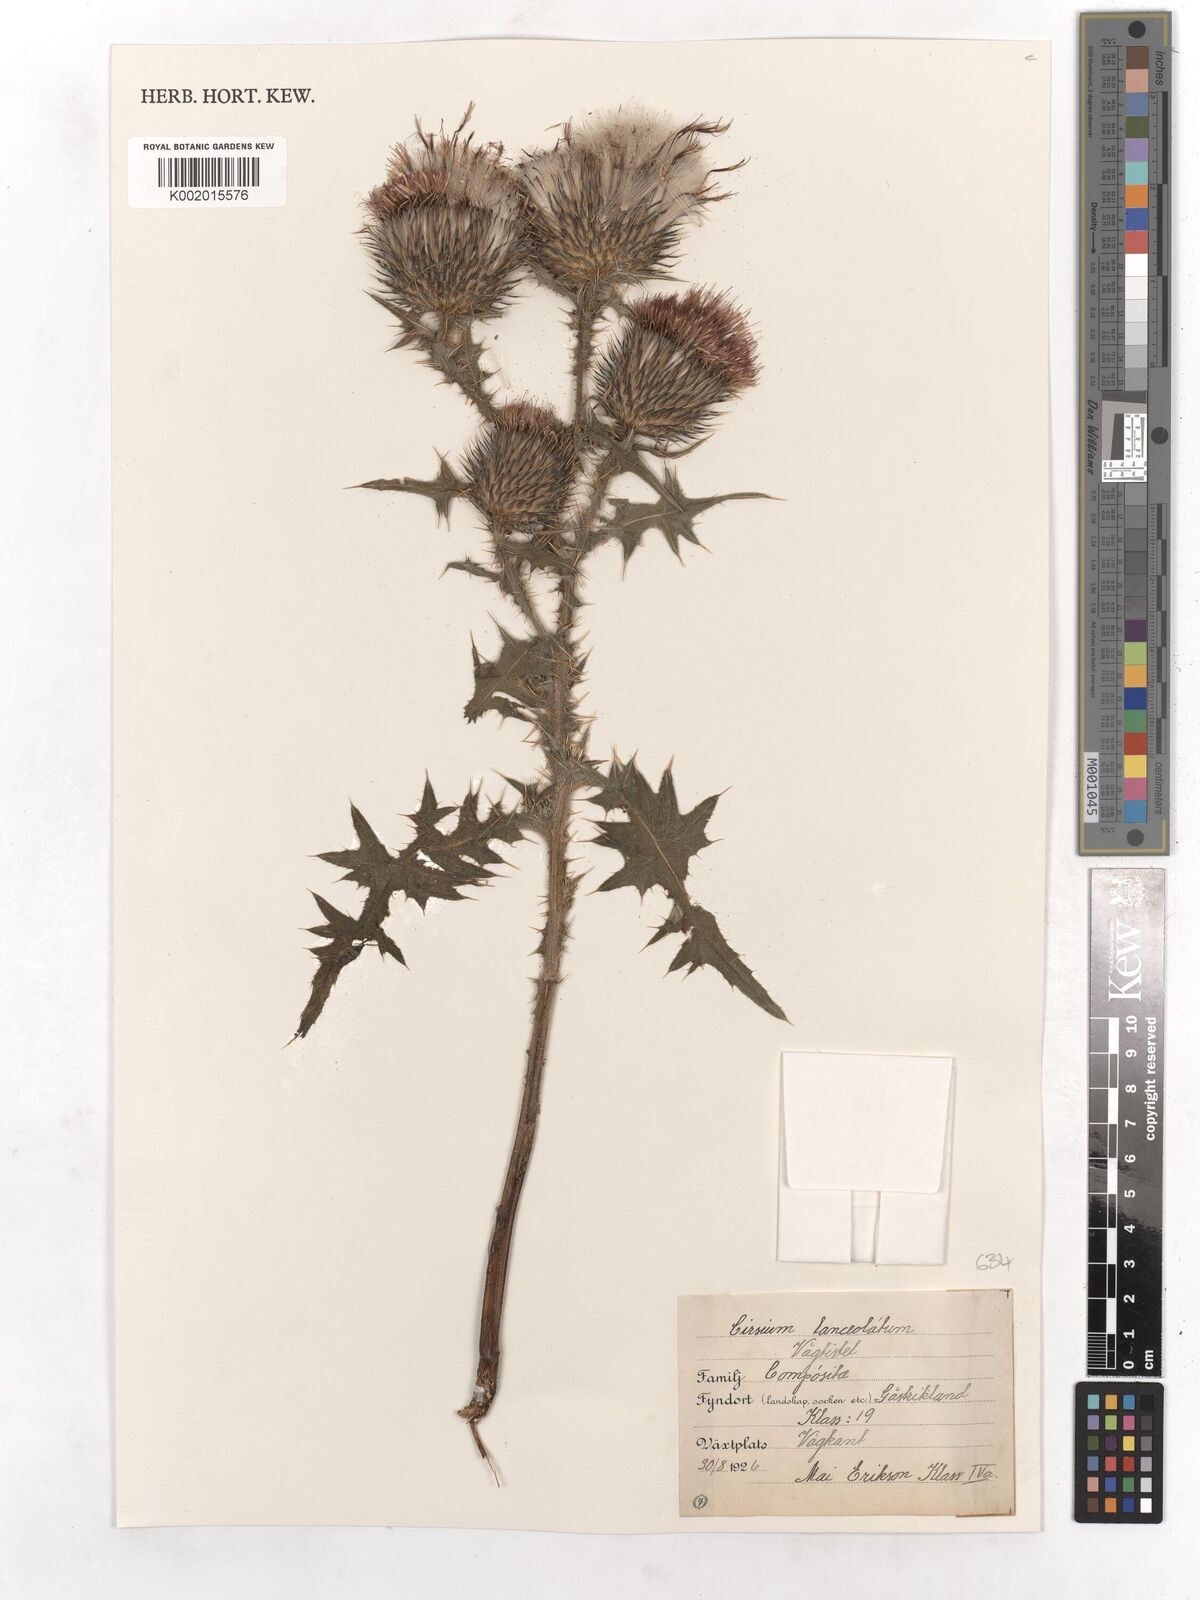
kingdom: Plantae
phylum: Tracheophyta
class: Magnoliopsida
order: Asterales
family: Asteraceae
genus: Cirsium
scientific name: Cirsium vulgare
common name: Bull thistle
